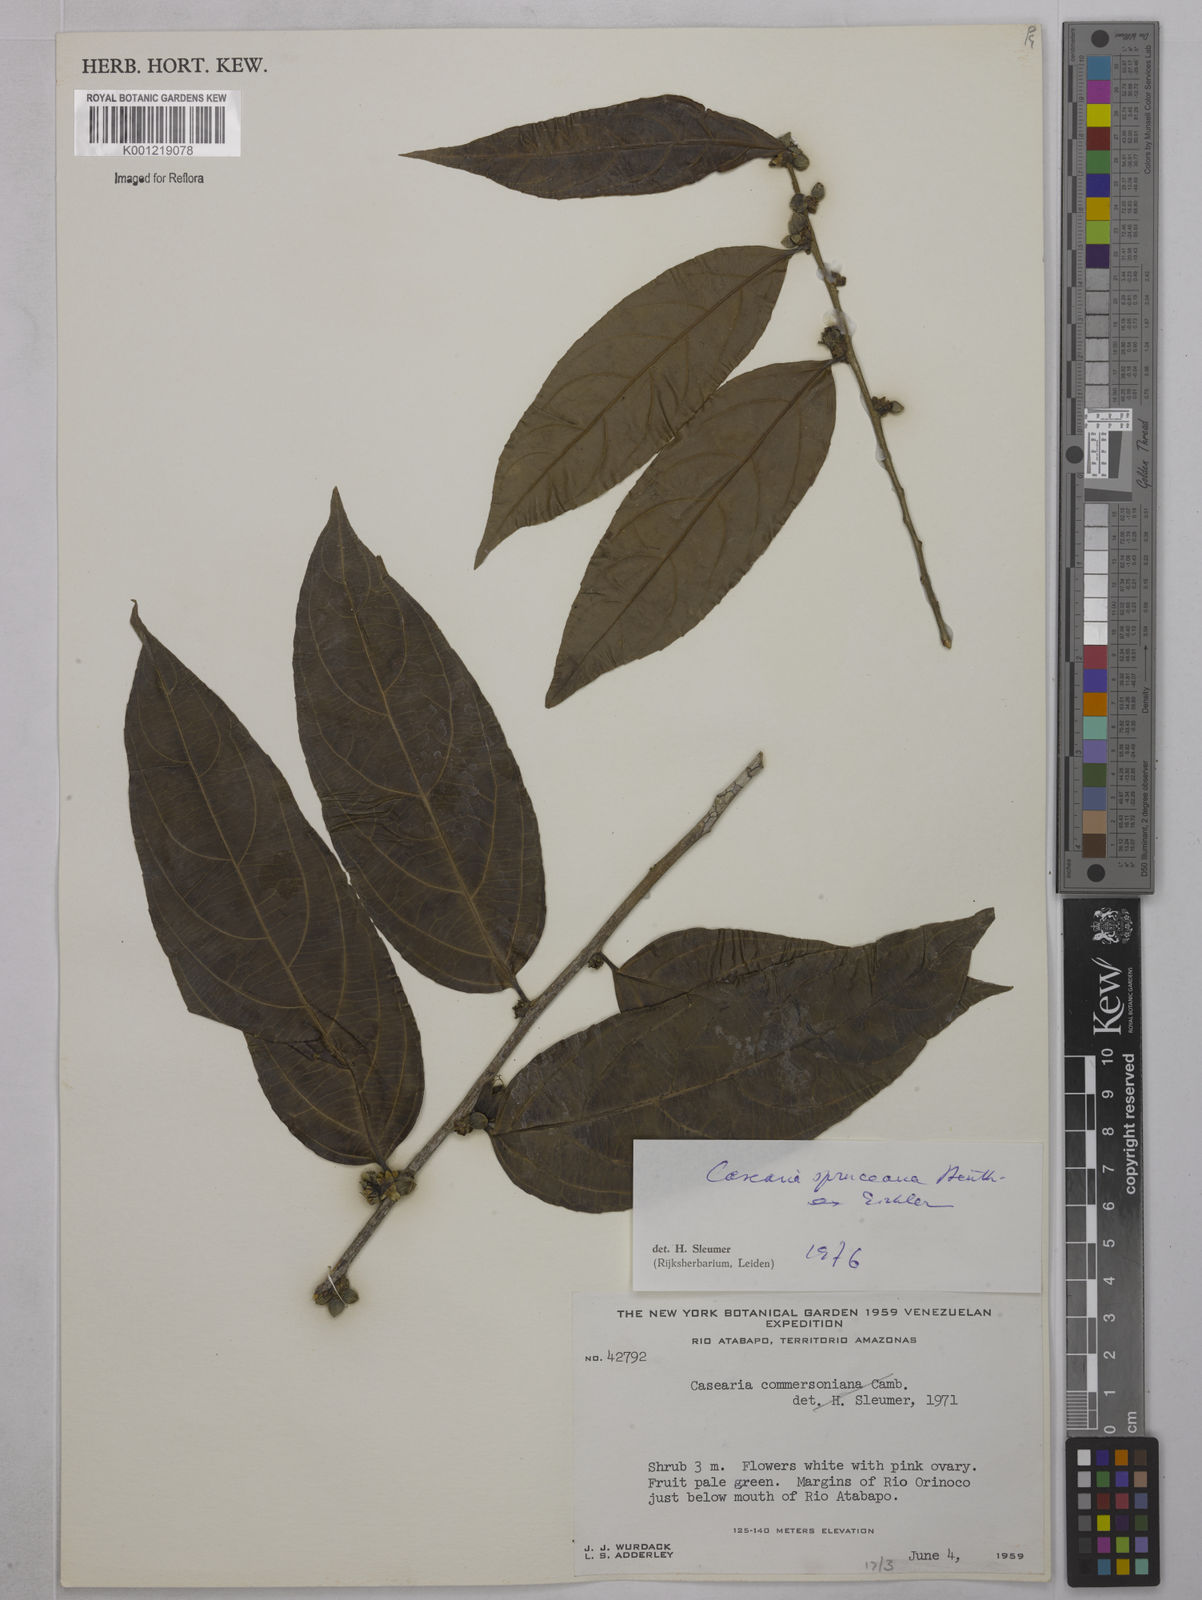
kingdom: Plantae
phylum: Tracheophyta
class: Magnoliopsida
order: Malpighiales
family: Salicaceae
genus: Piparea
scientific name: Piparea spruceana
